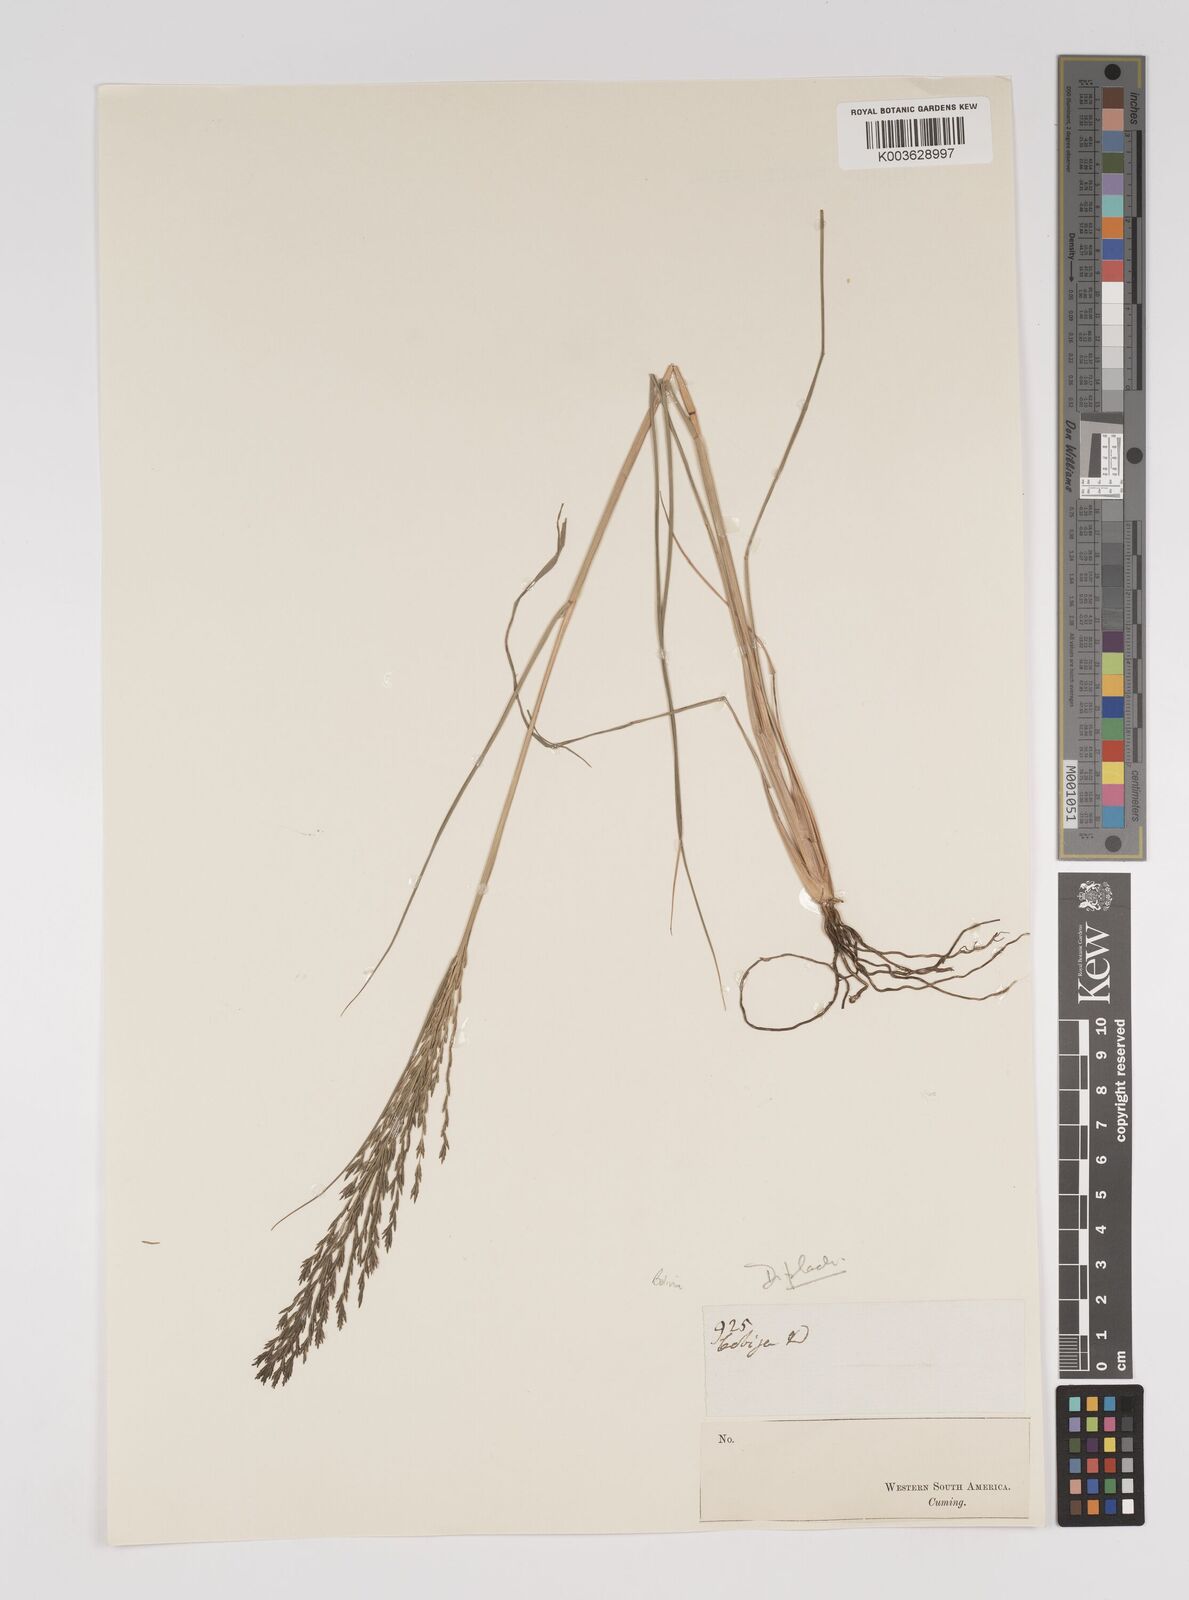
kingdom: Plantae
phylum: Tracheophyta
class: Liliopsida
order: Poales
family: Poaceae
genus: Diplachne
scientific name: Diplachne fusca
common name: Brown beetle grass
